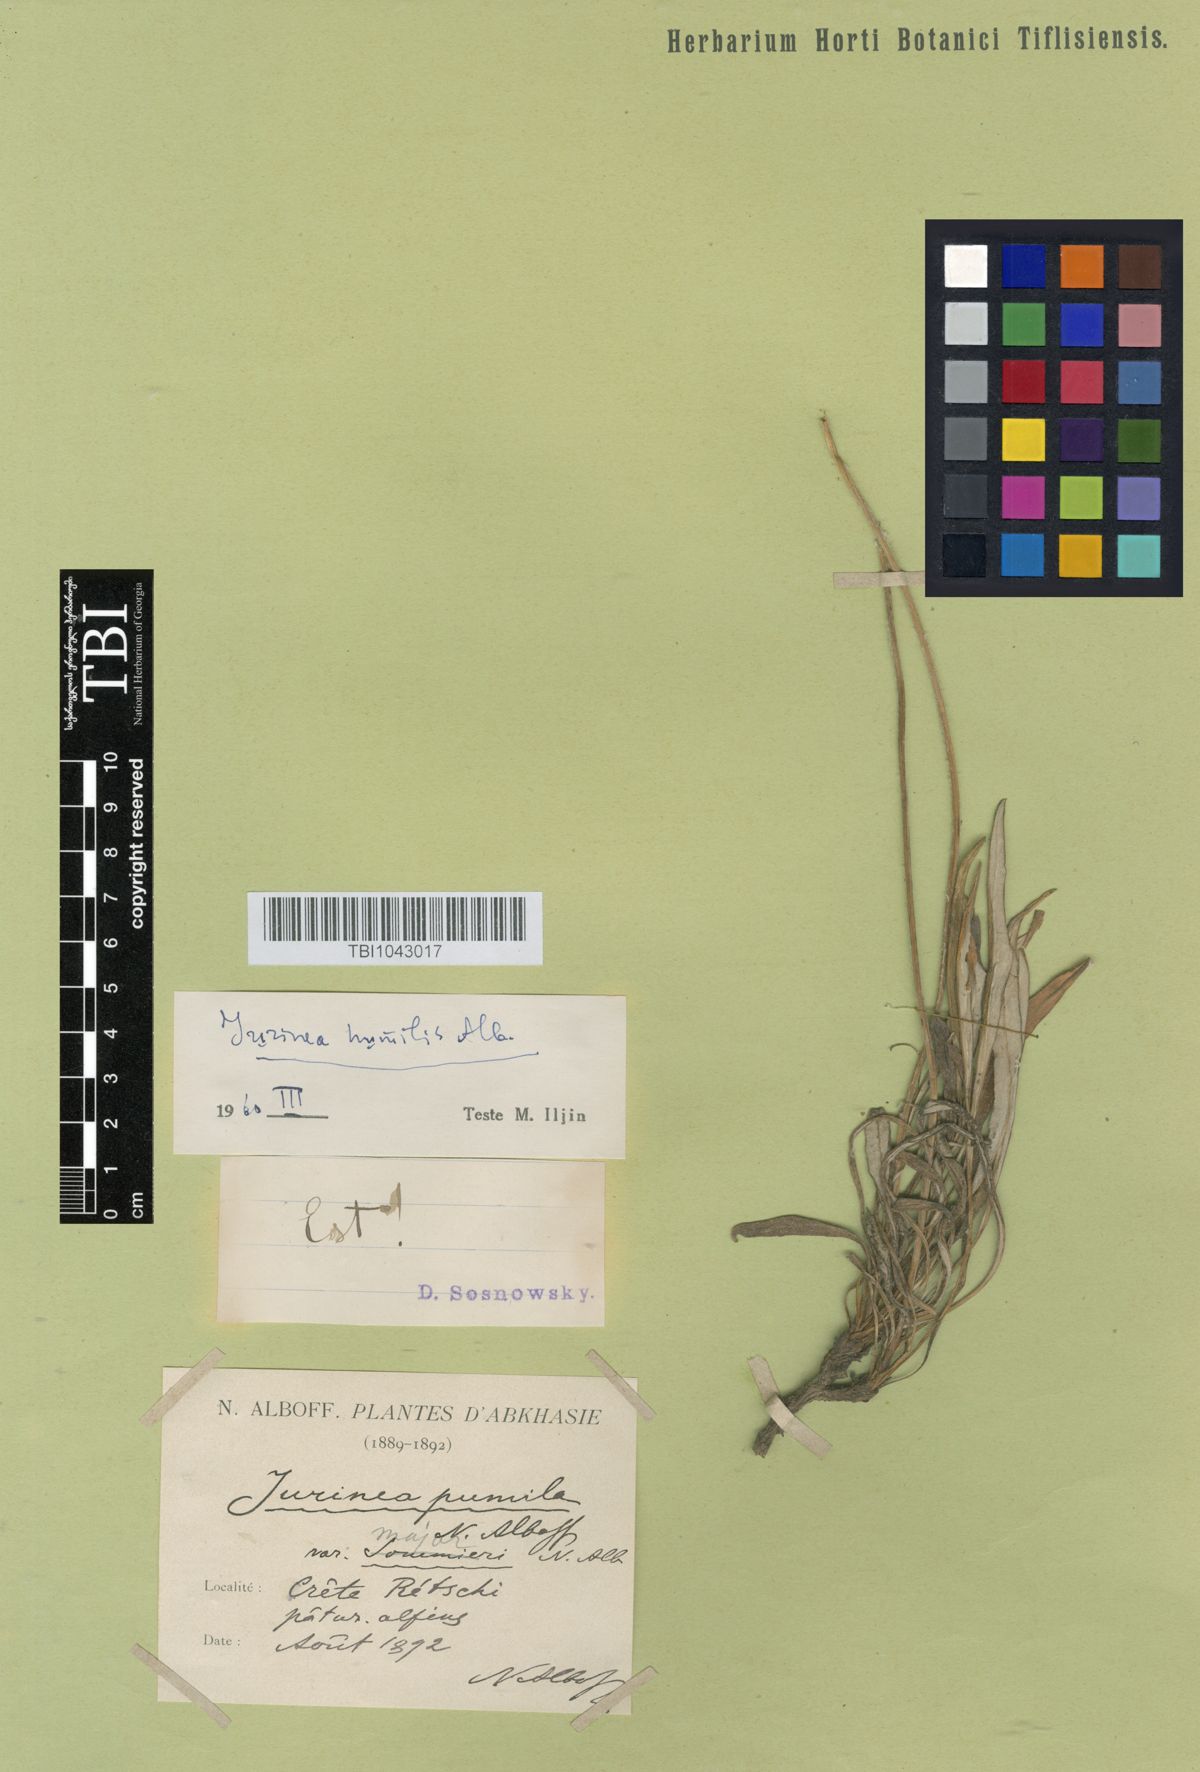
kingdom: Plantae
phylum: Tracheophyta
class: Magnoliopsida
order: Asterales
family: Asteraceae
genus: Jurinea
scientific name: Jurinea pumila
